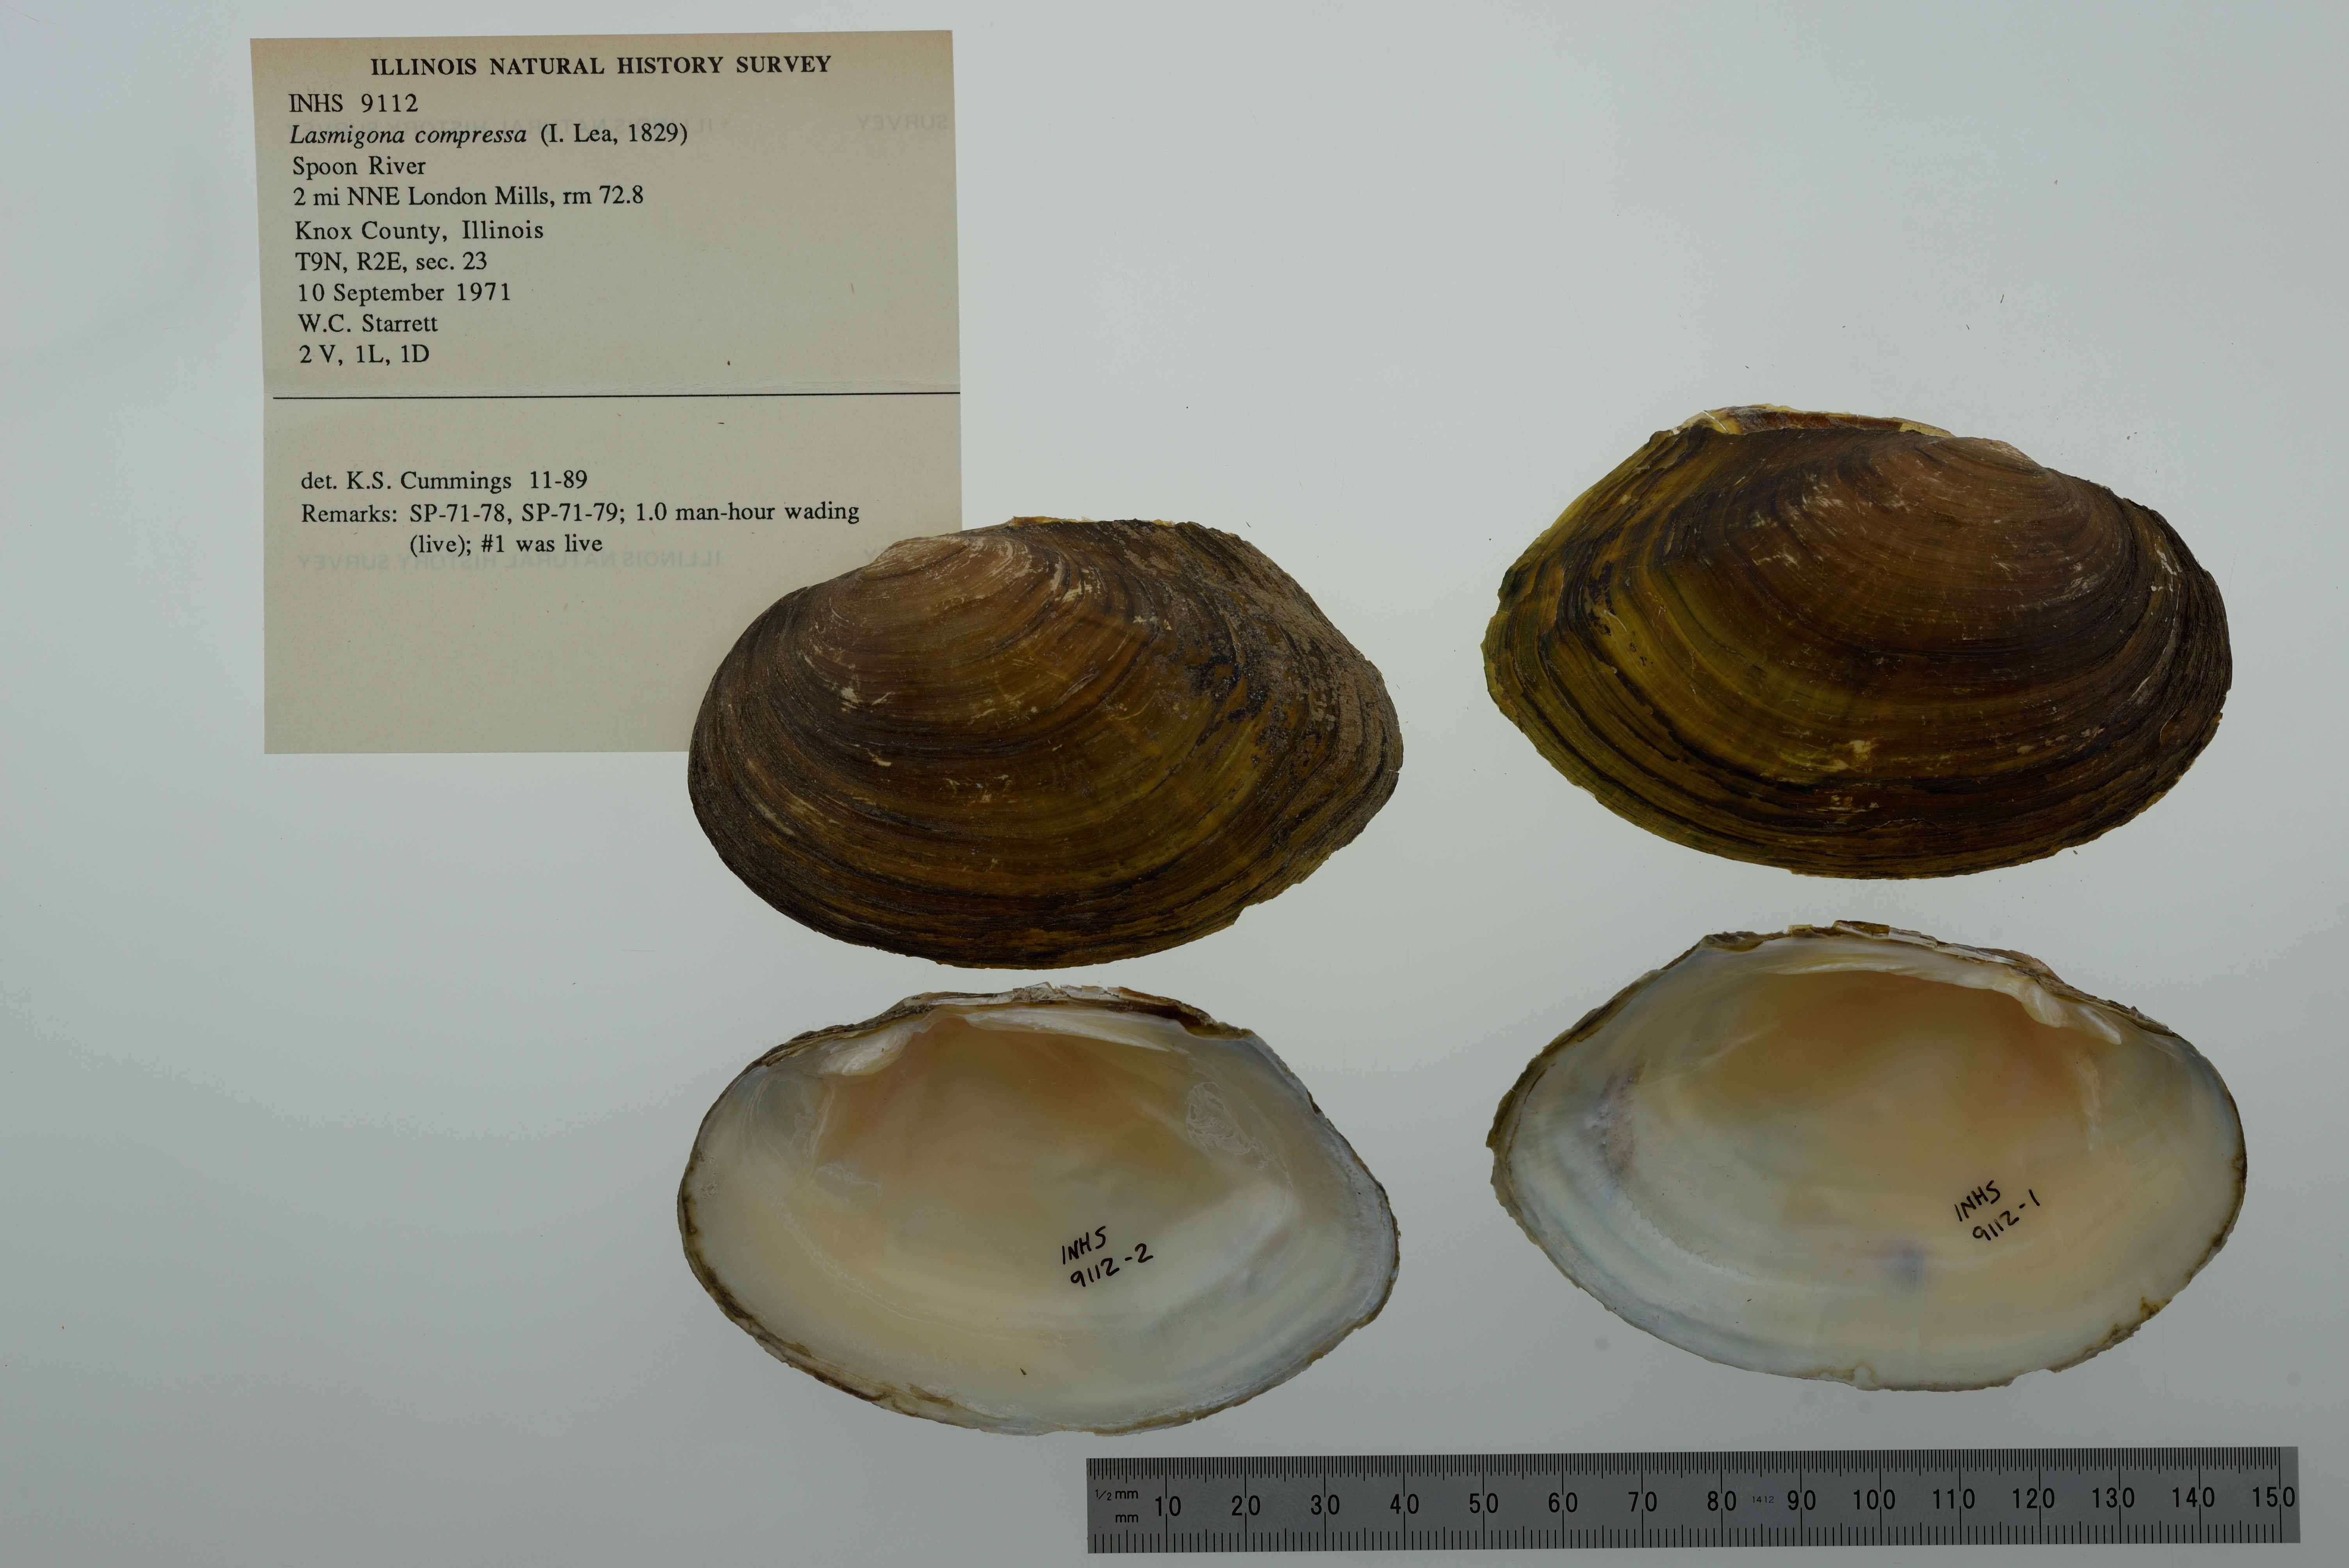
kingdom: Animalia
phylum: Mollusca
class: Bivalvia
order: Unionida
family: Unionidae
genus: Lasmigona
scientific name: Lasmigona compressa
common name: Creek heelsplitter
